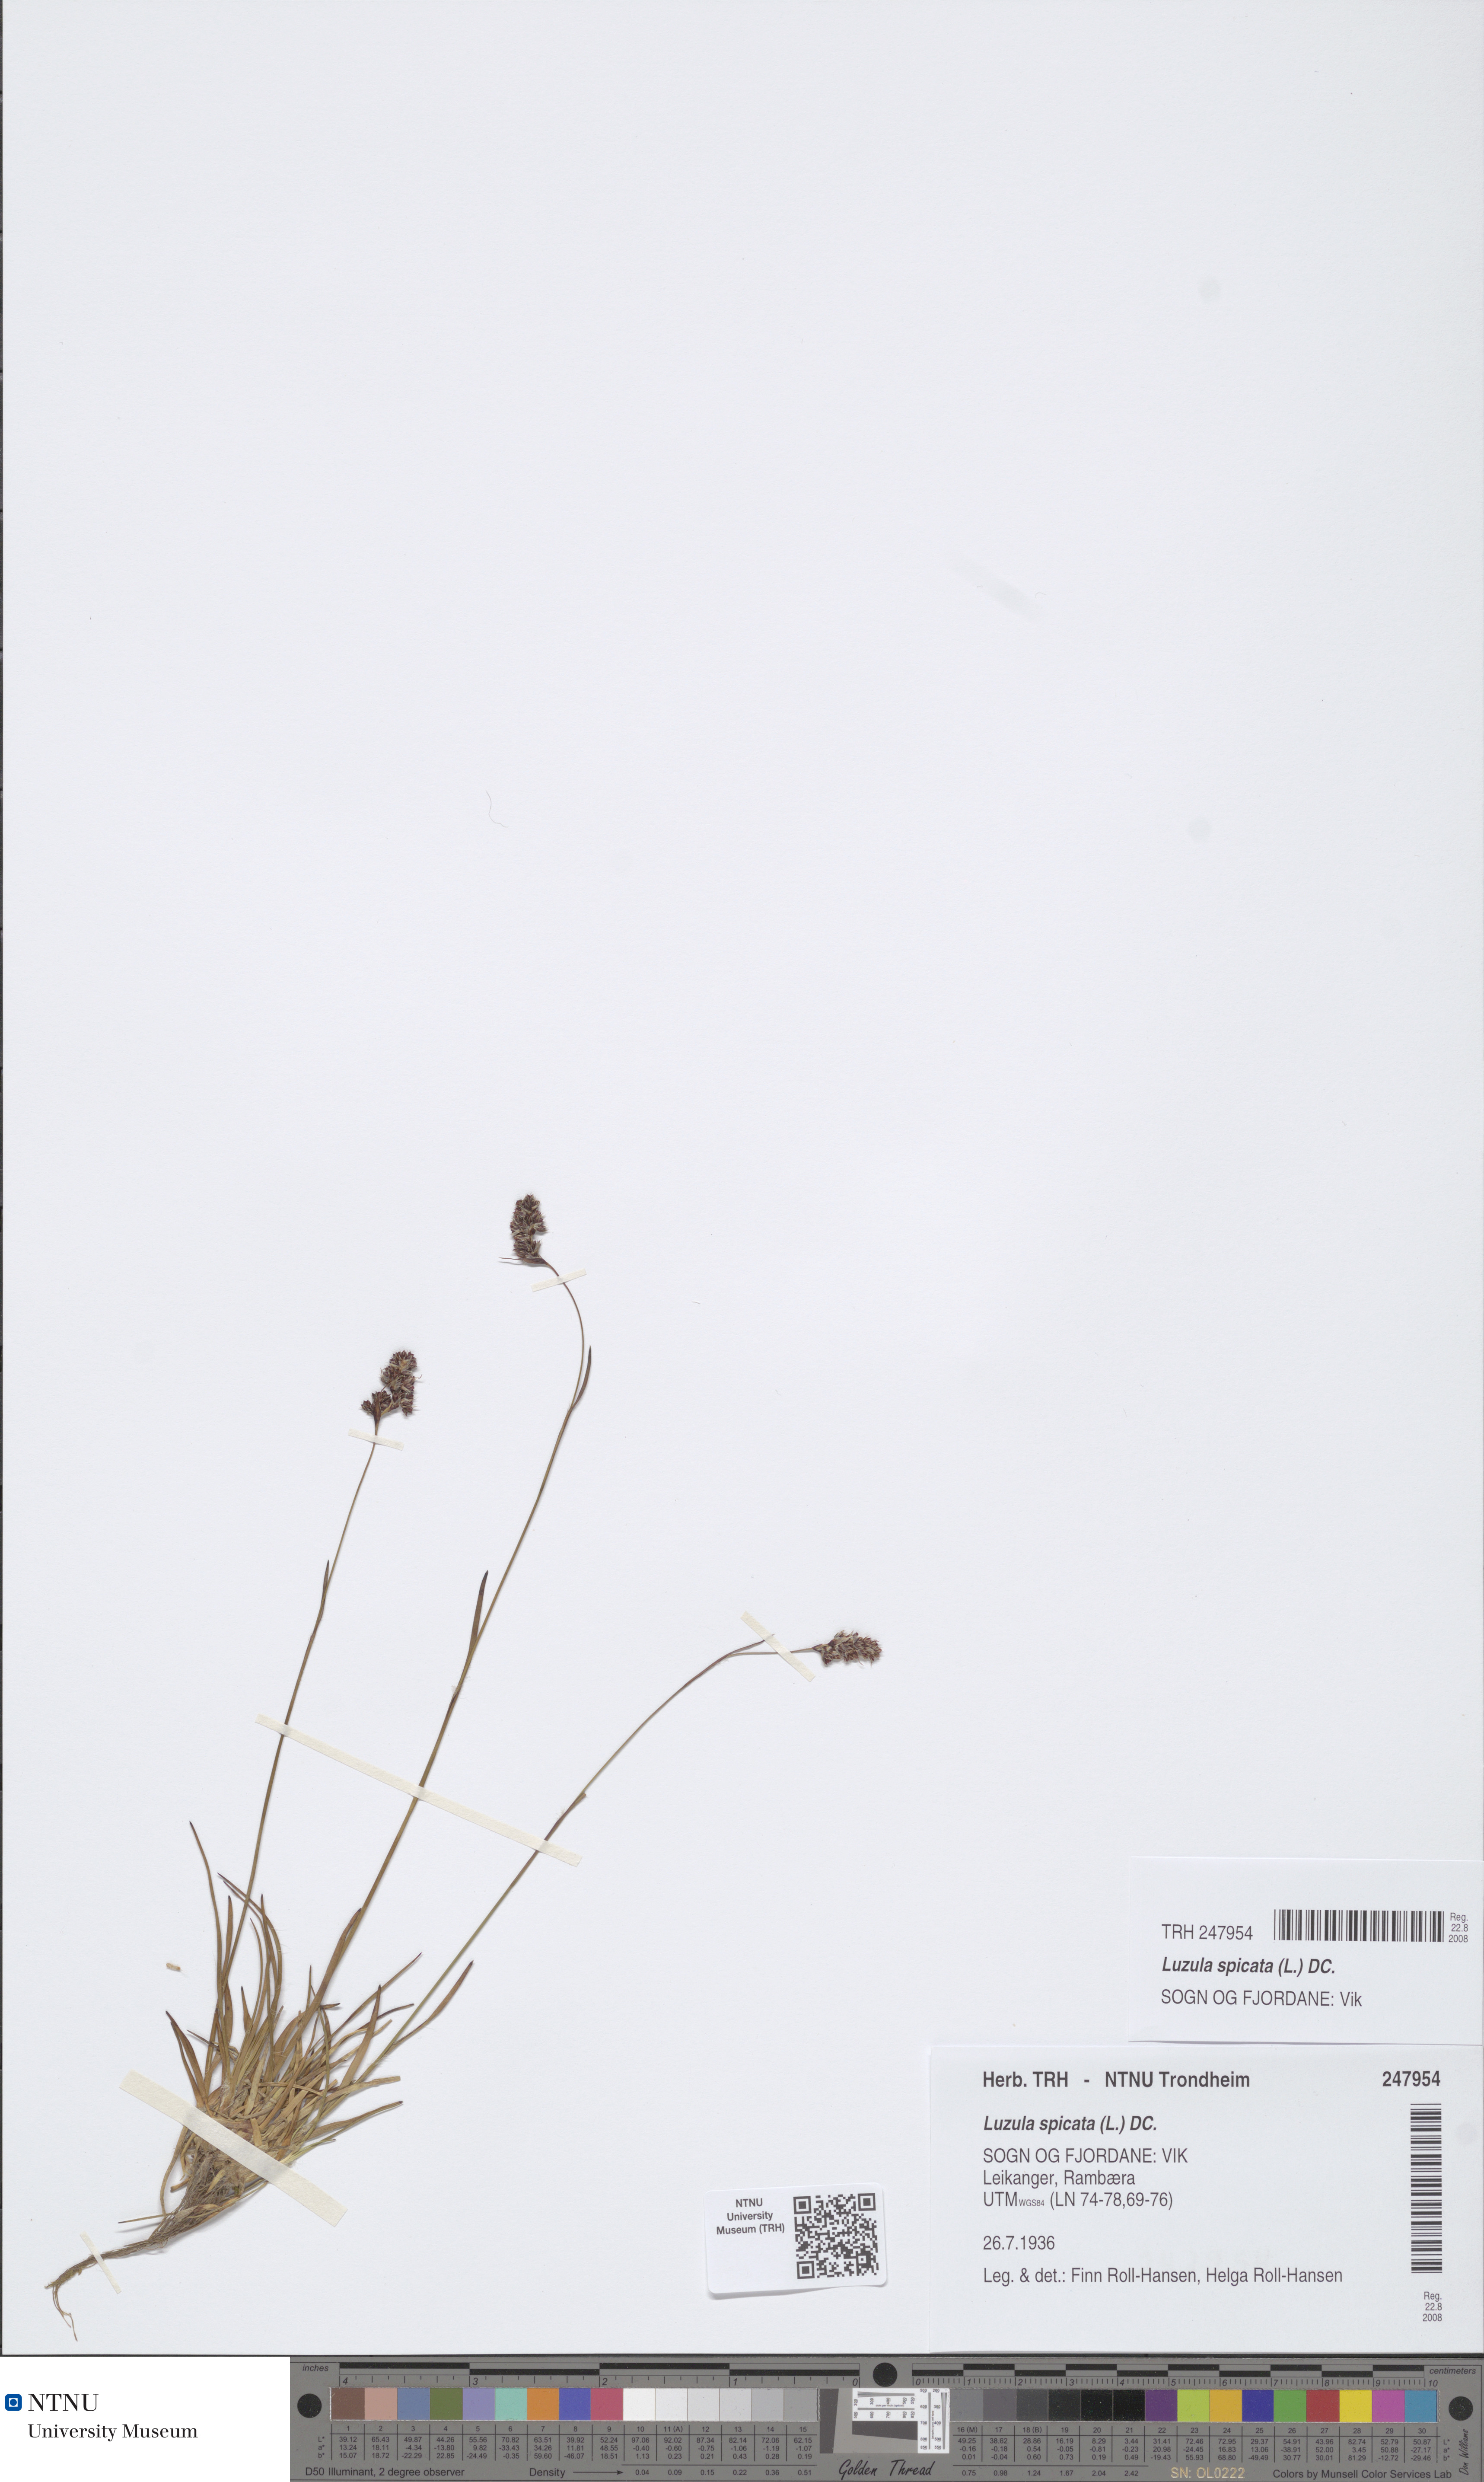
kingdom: Plantae
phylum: Tracheophyta
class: Liliopsida
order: Poales
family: Juncaceae
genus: Luzula
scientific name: Luzula spicata
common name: Spiked wood-rush
